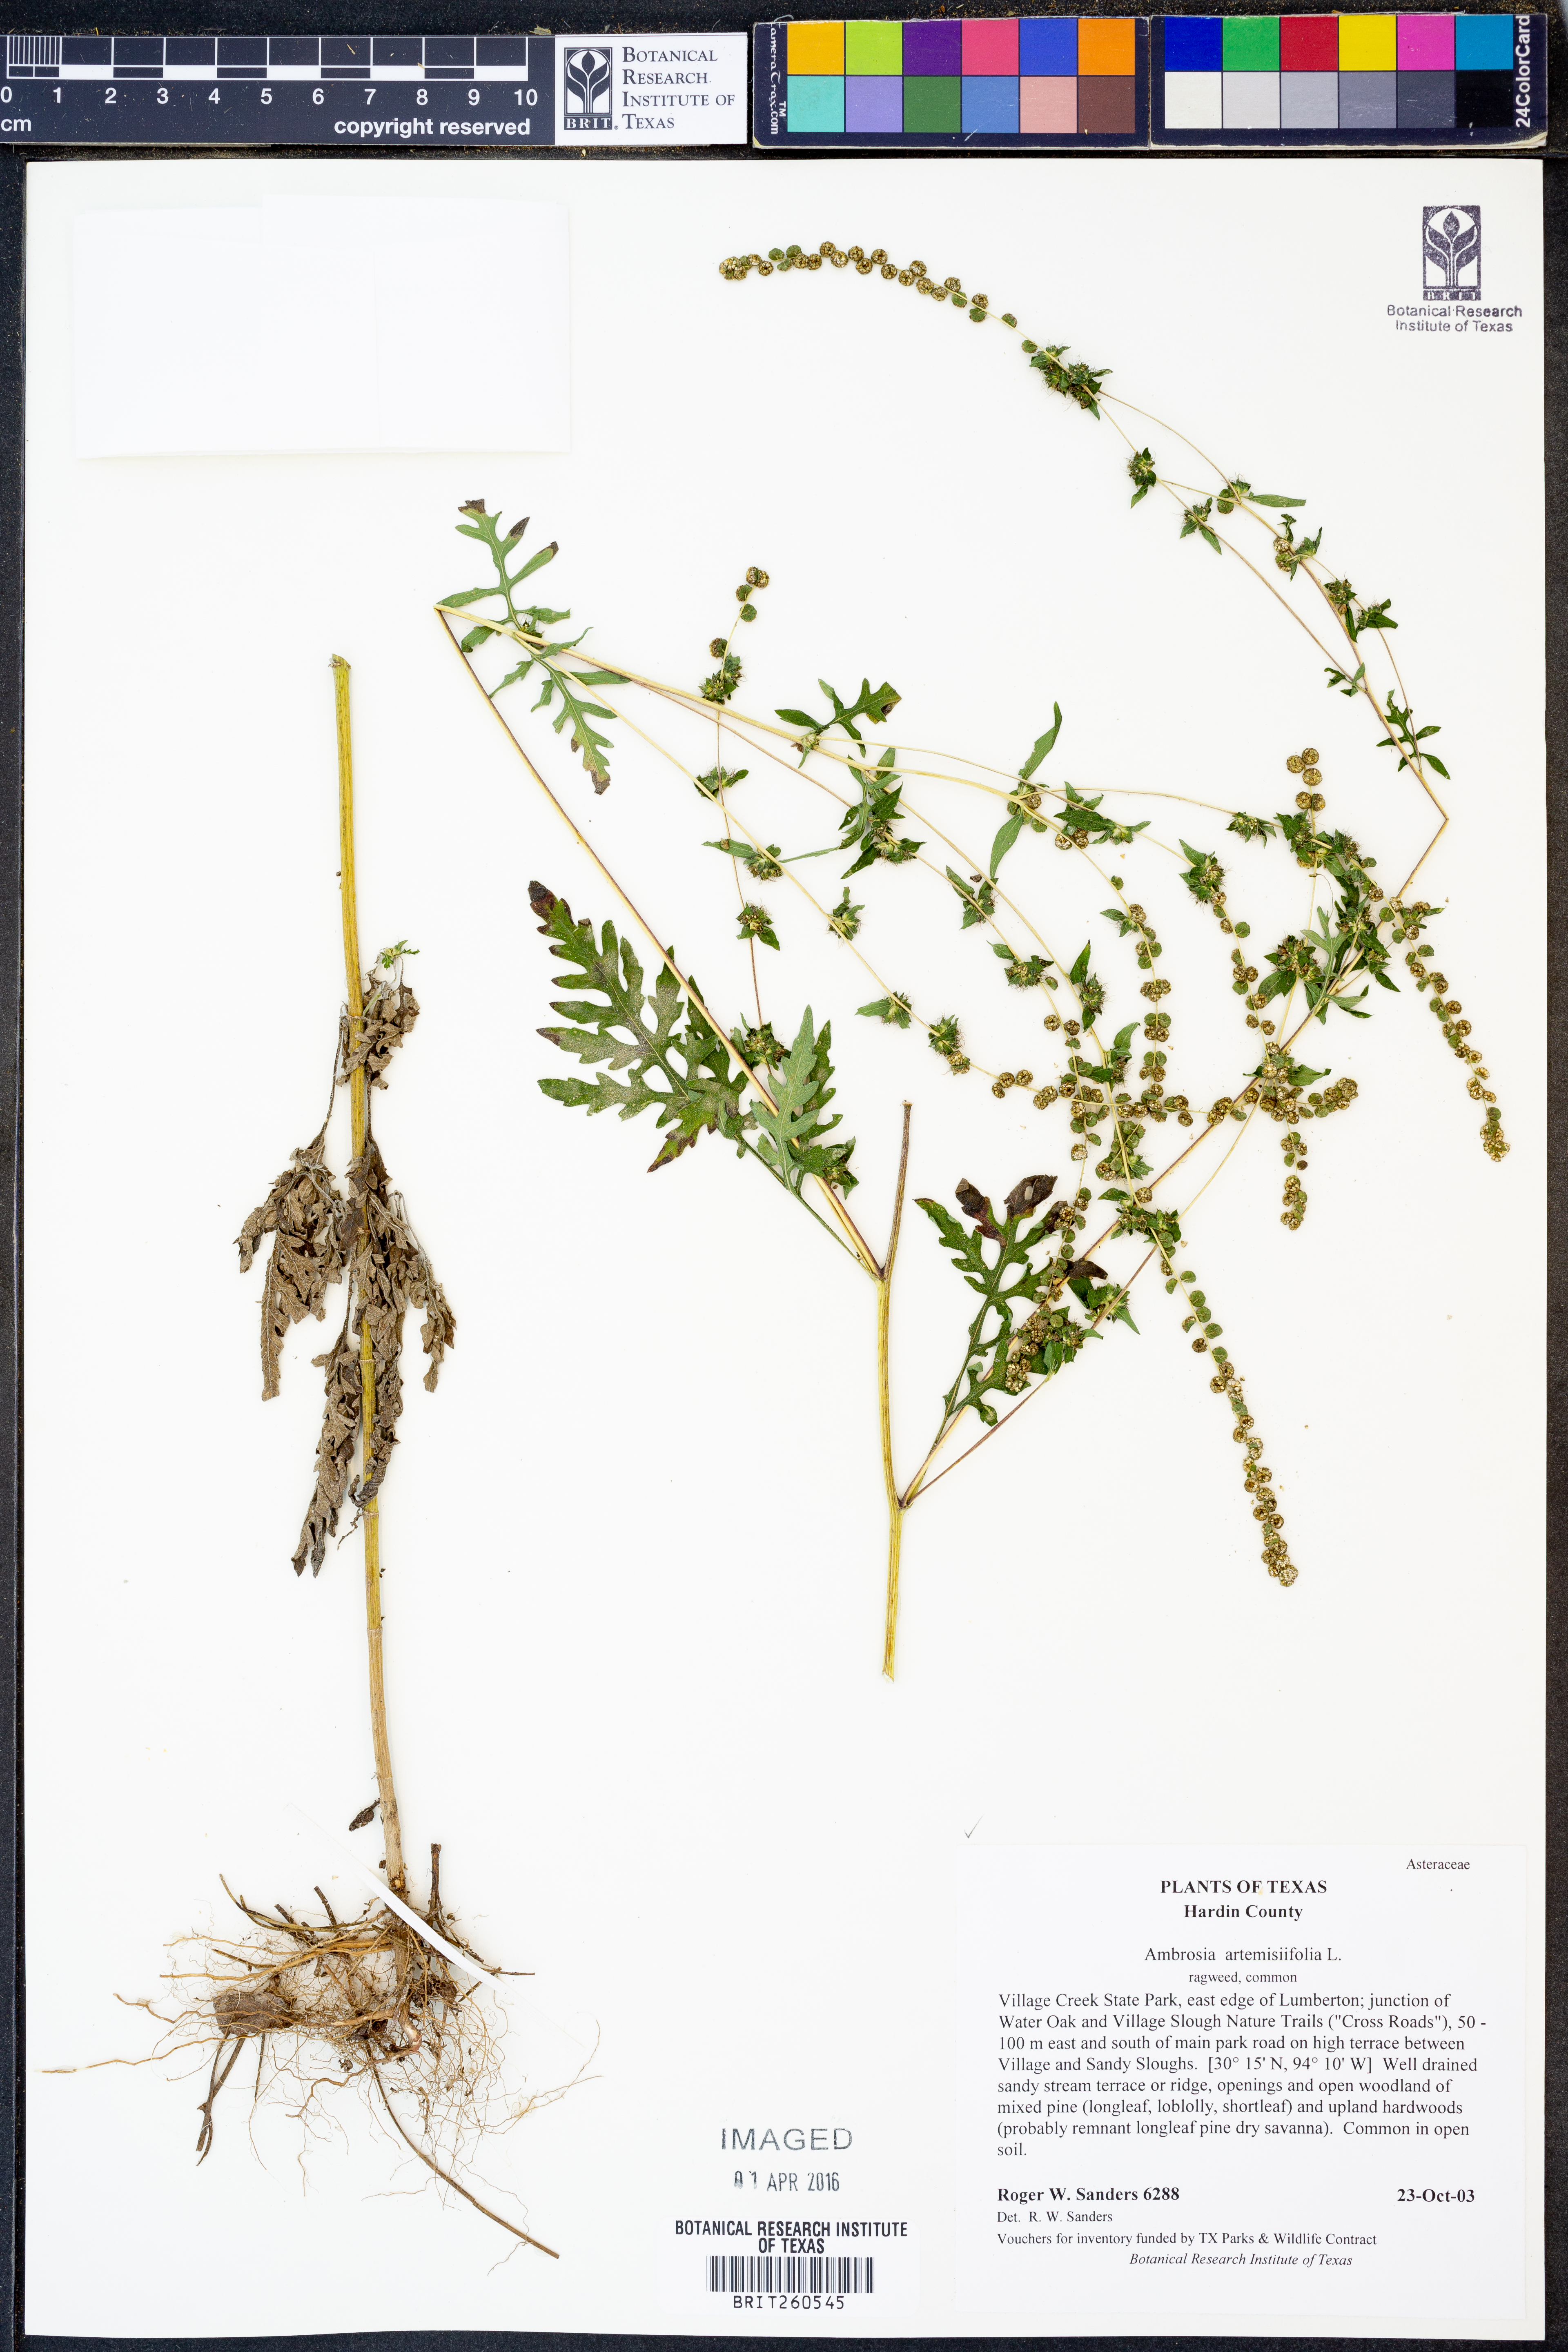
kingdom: Plantae
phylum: Tracheophyta
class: Magnoliopsida
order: Asterales
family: Asteraceae
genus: Ambrosia
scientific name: Ambrosia artemisiifolia
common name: Annual ragweed
